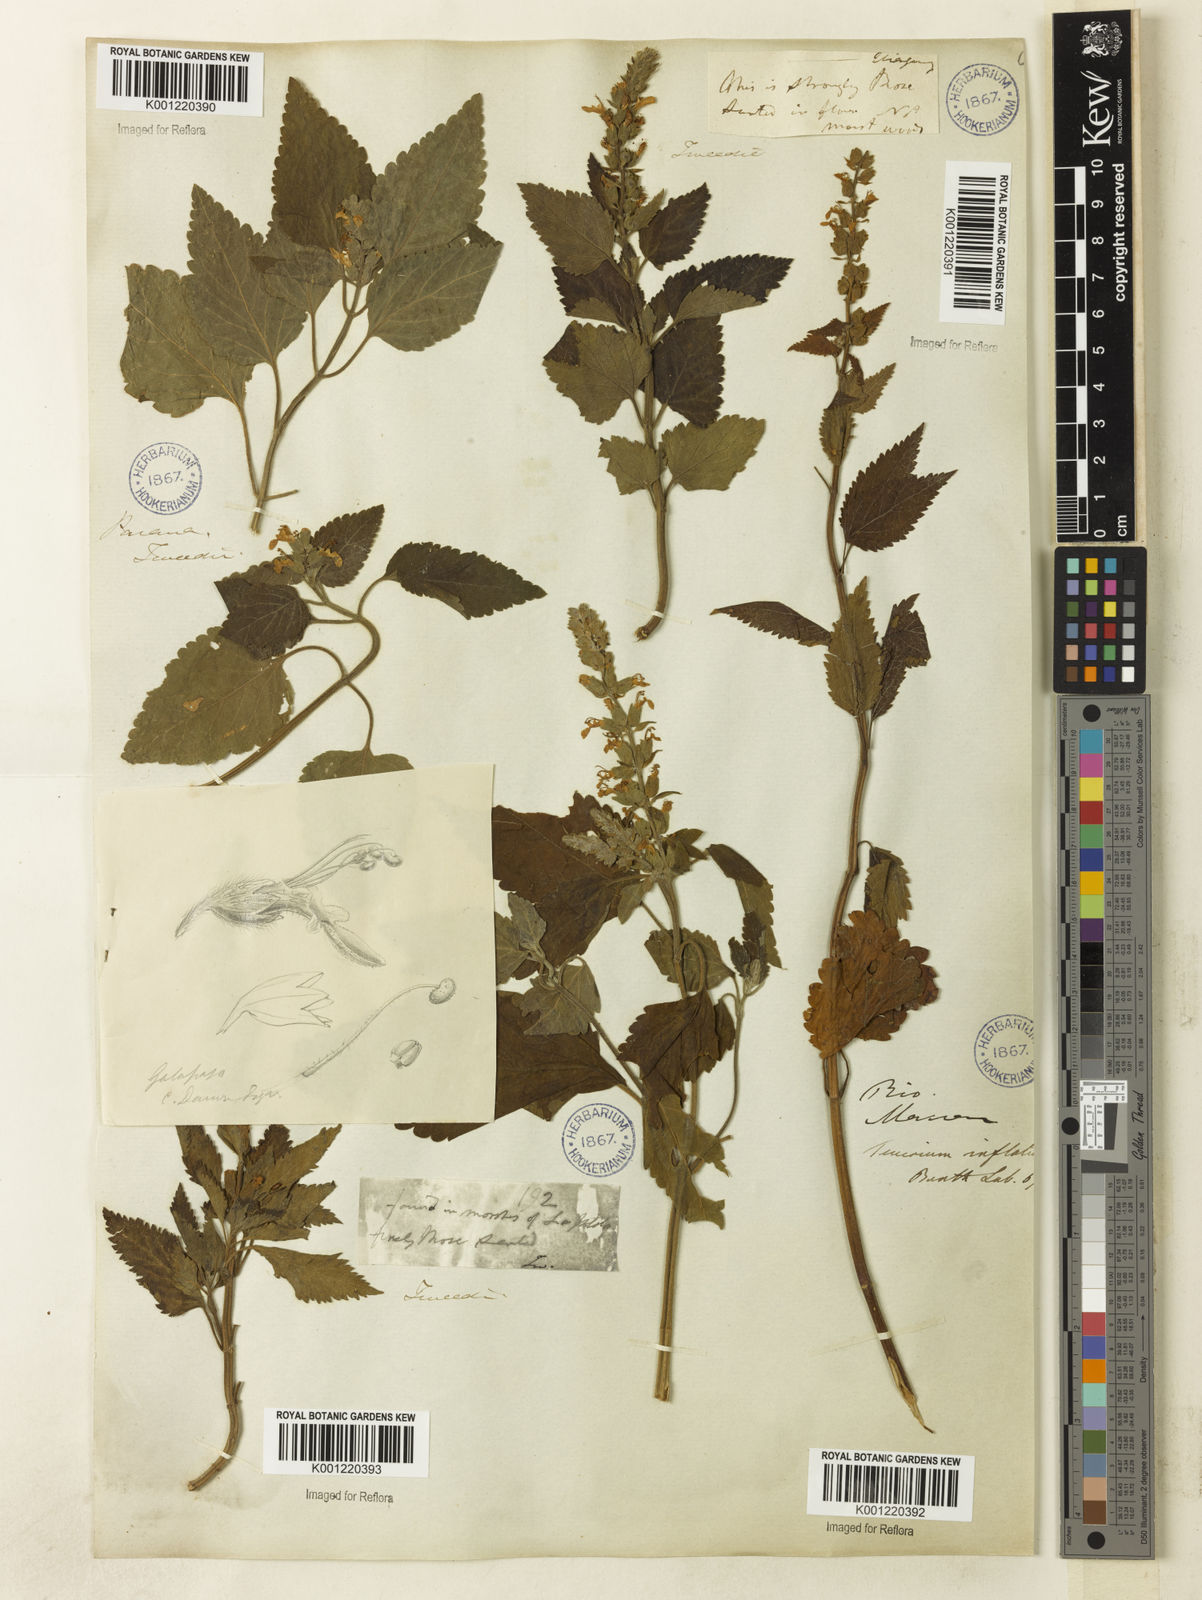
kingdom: Plantae
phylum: Tracheophyta
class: Magnoliopsida
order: Lamiales
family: Lamiaceae
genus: Teucrium
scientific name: Teucrium vesicarium
